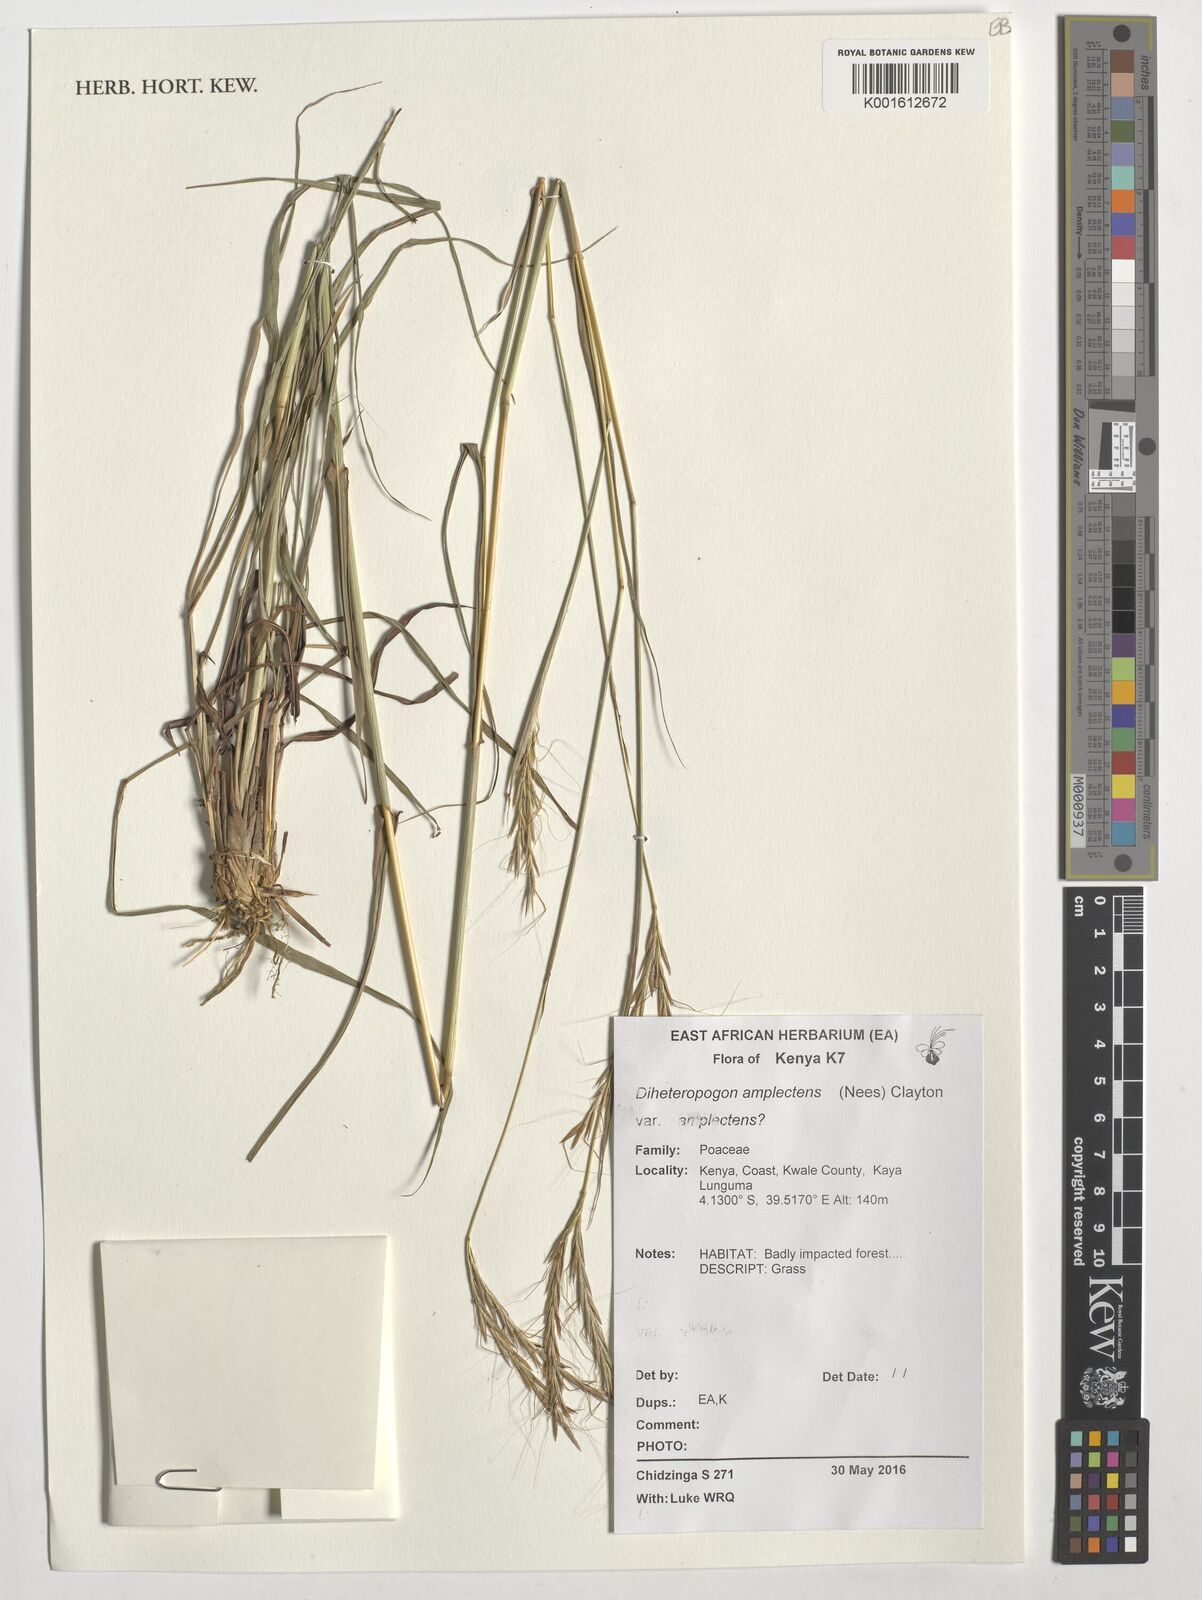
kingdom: Plantae
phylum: Tracheophyta
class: Liliopsida
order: Poales
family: Poaceae
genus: Diheteropogon
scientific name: Diheteropogon amplectens
